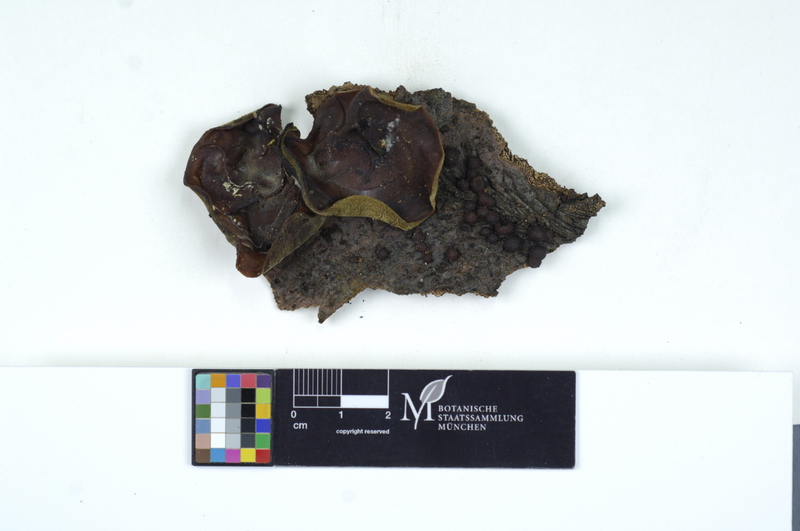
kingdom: Fungi
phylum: Basidiomycota
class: Agaricomycetes
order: Auriculariales
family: Auriculariaceae
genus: Auricularia
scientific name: Auricularia auricula-judae
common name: Jelly ear
